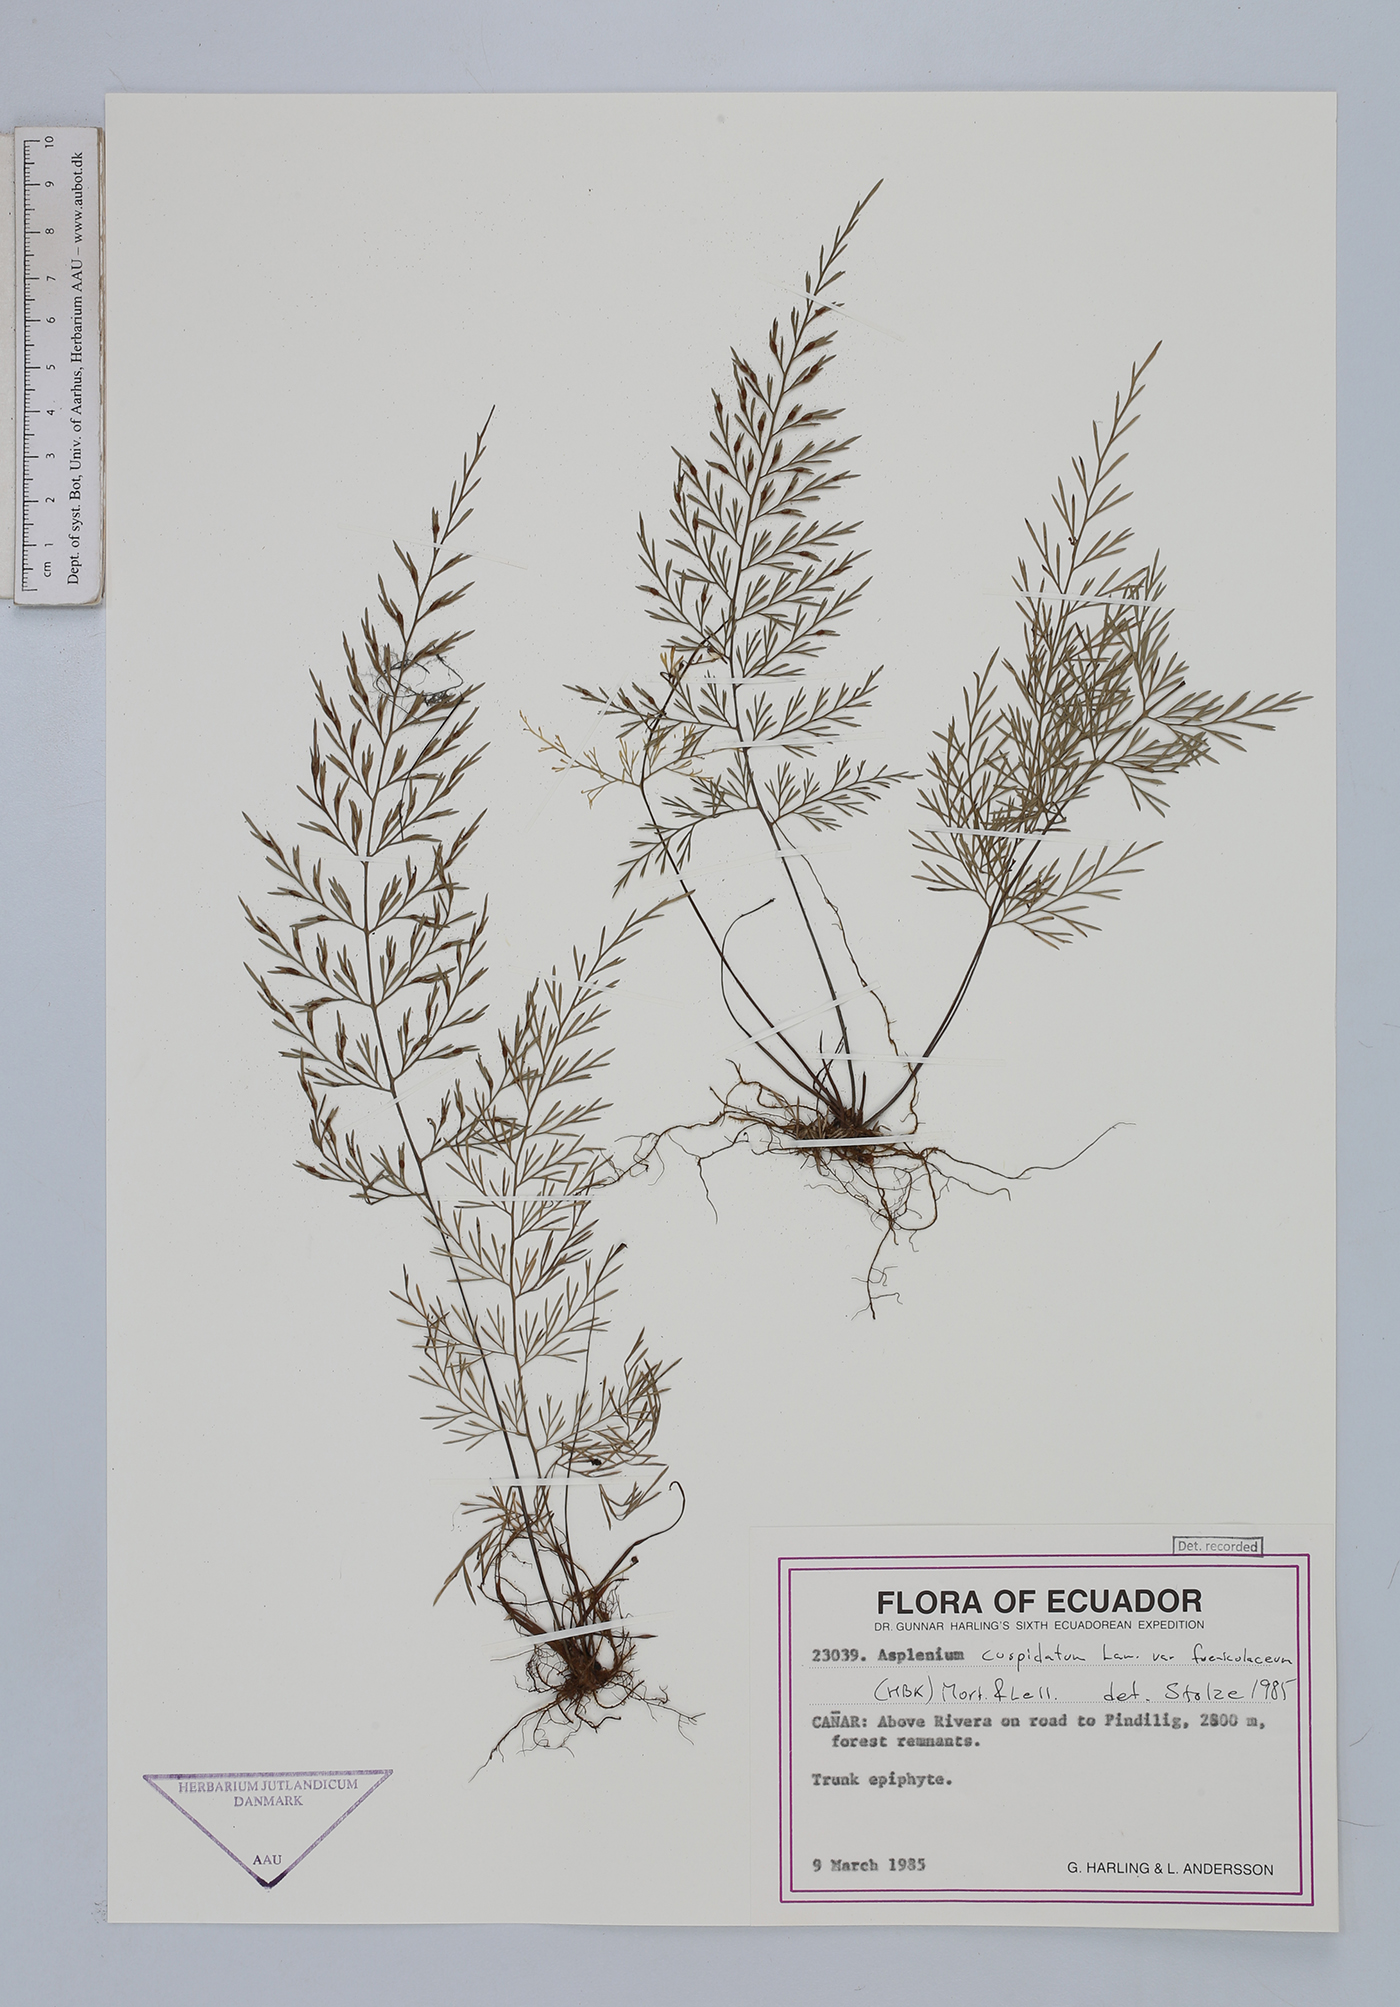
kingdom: Plantae
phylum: Tracheophyta
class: Polypodiopsida
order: Polypodiales
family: Aspleniaceae
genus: Asplenium
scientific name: Asplenium fragrans
